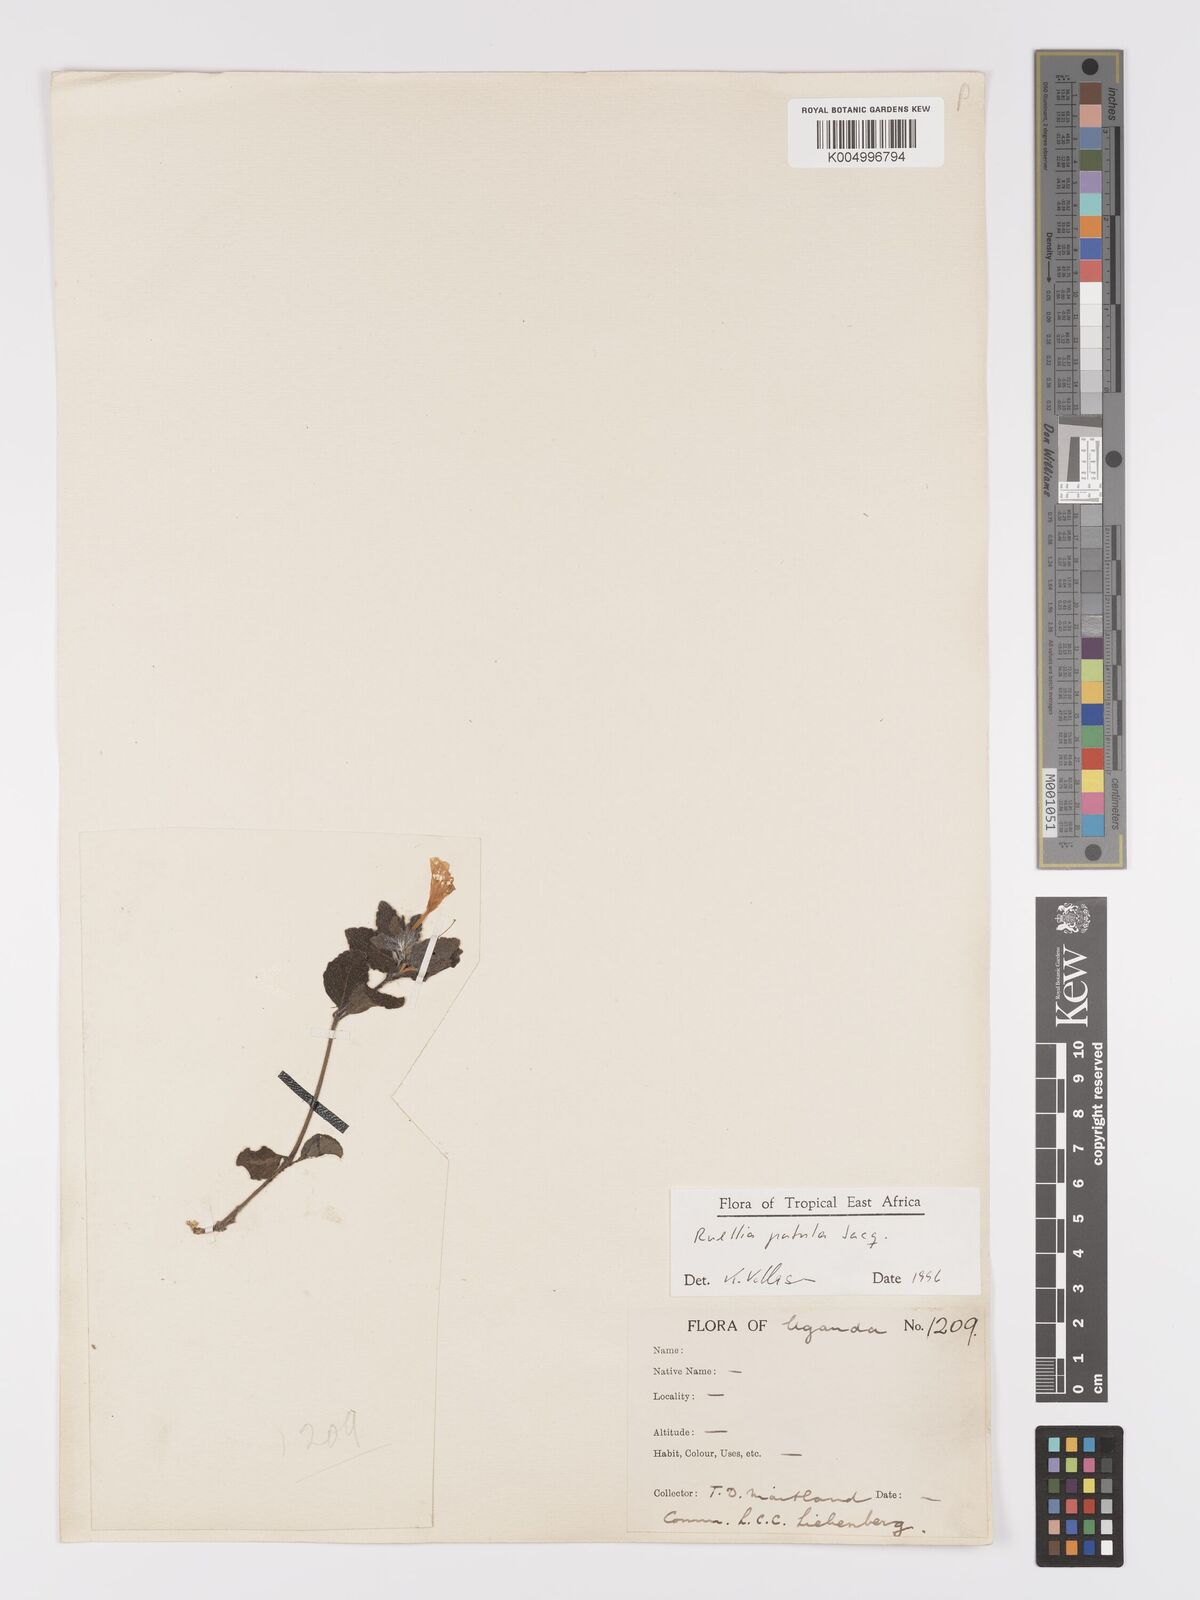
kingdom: Plantae
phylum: Tracheophyta
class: Magnoliopsida
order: Lamiales
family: Acanthaceae
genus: Ruellia
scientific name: Ruellia patula
